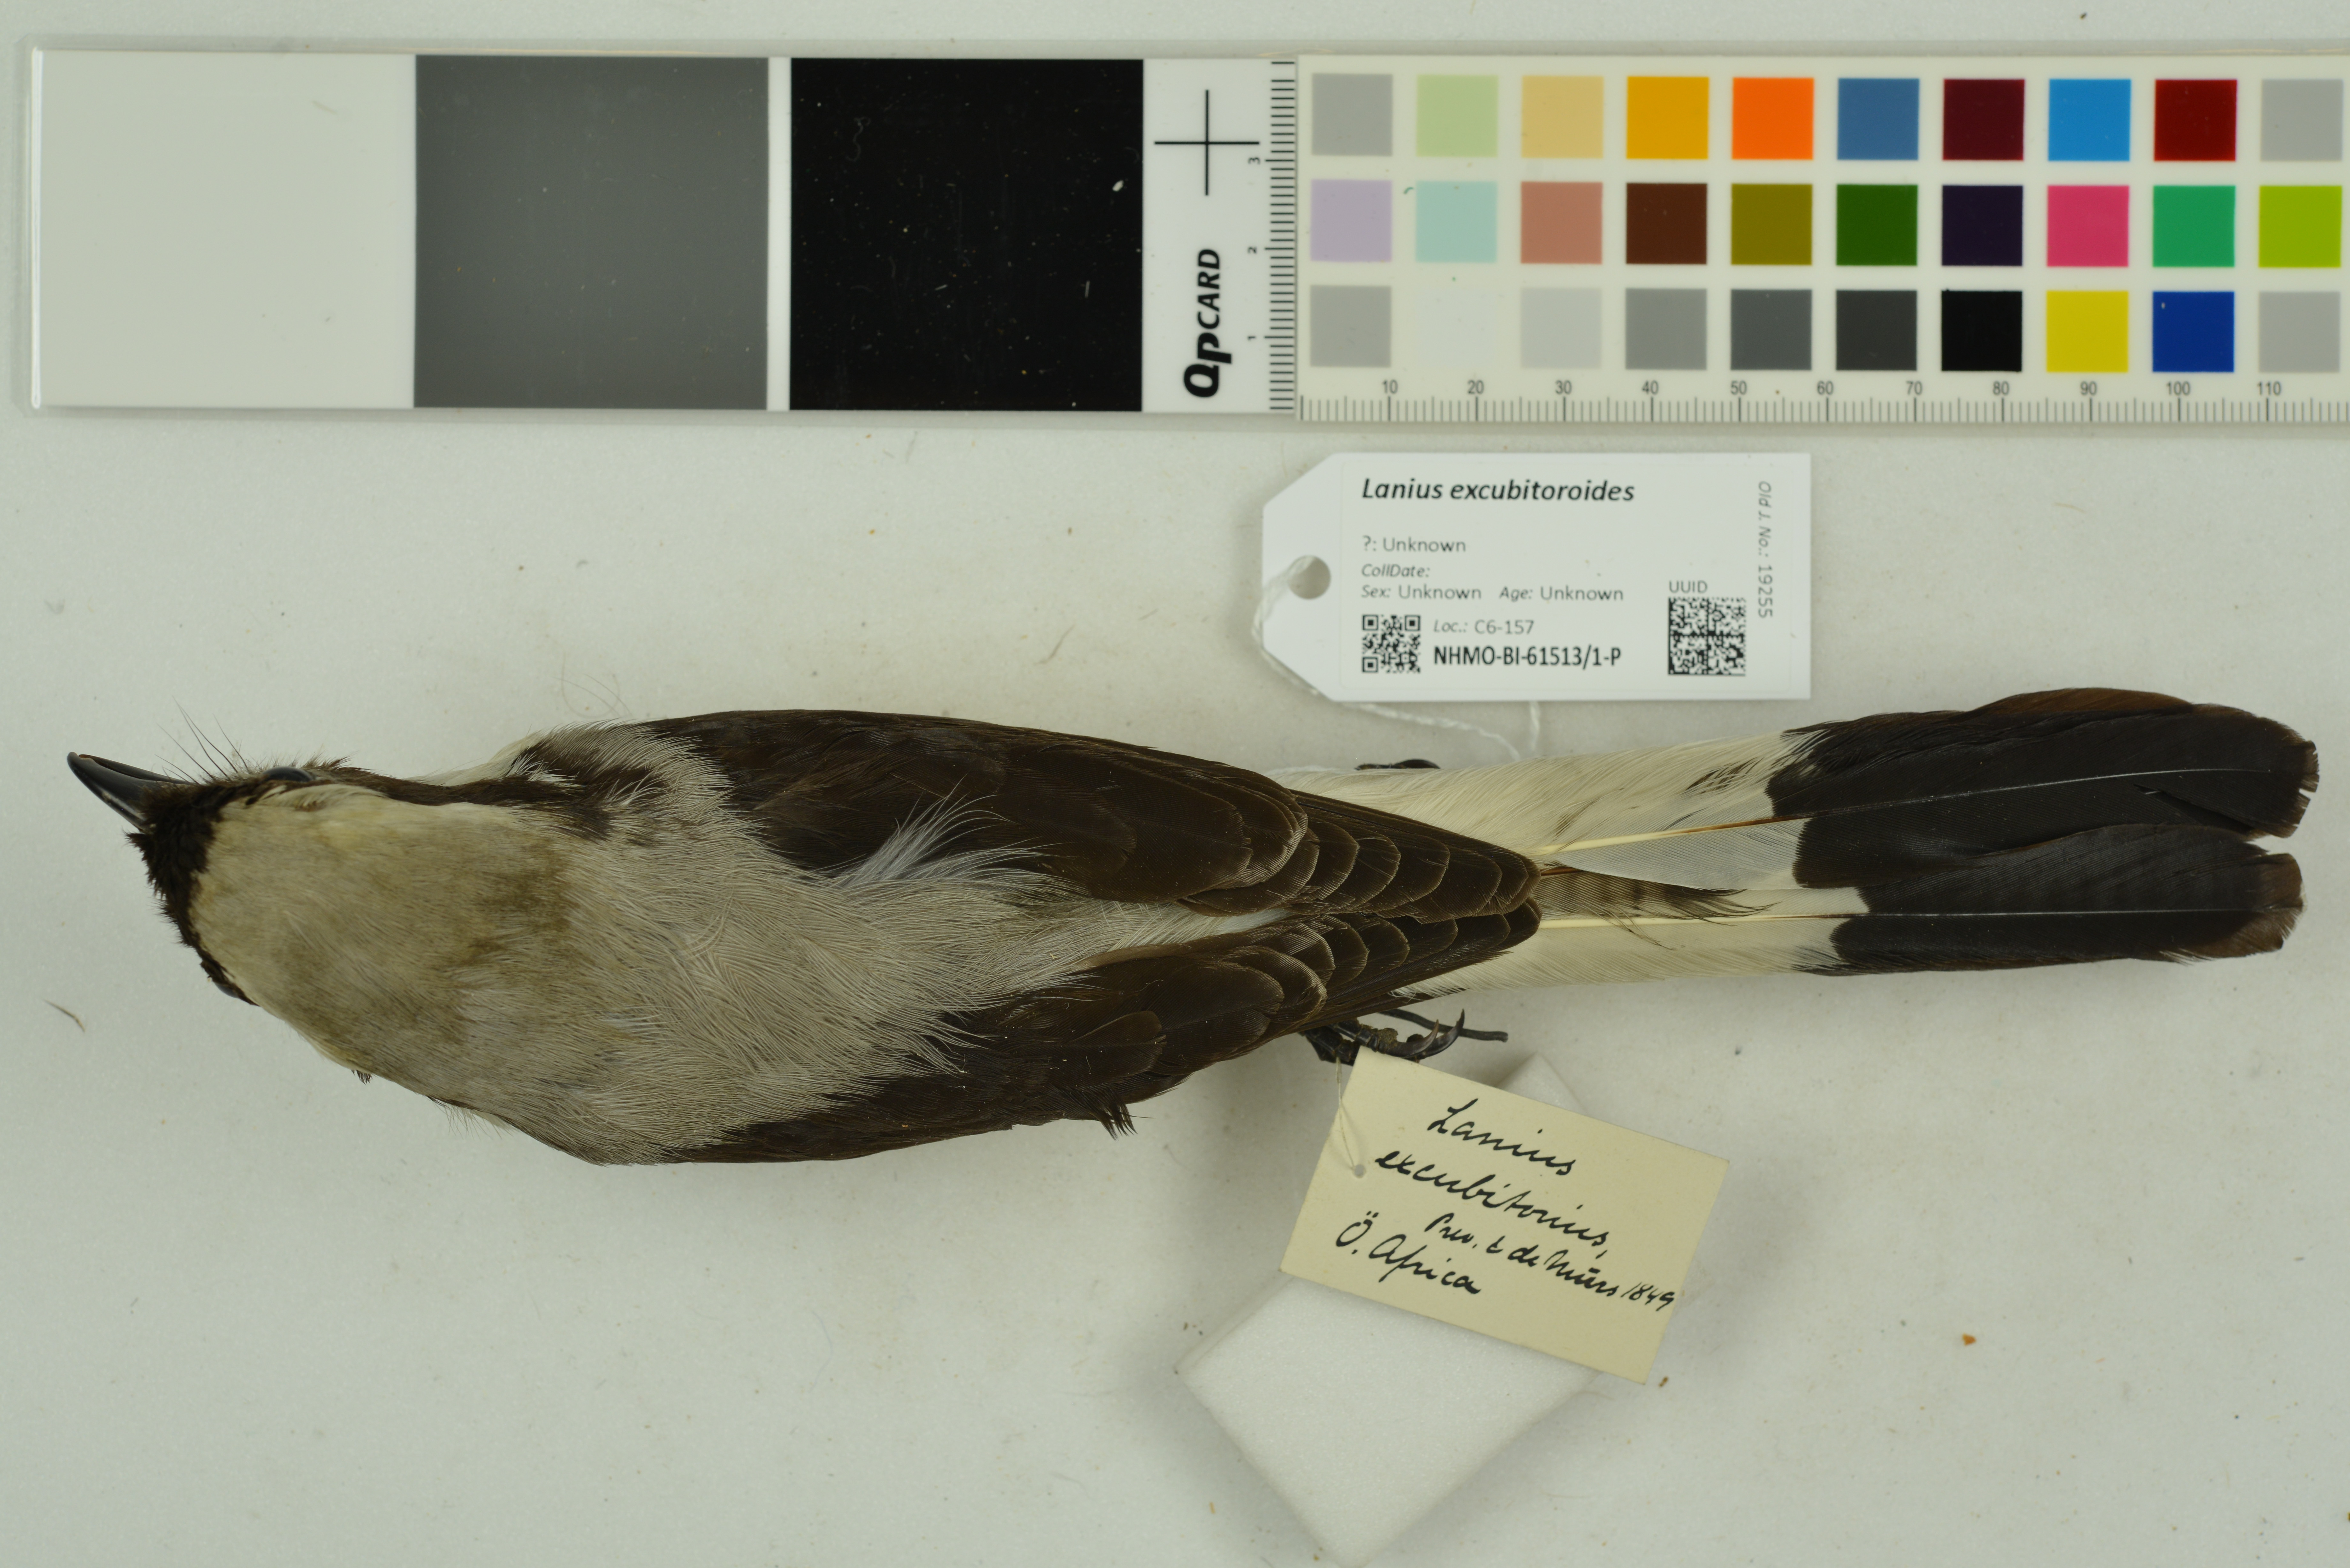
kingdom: Animalia
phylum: Chordata
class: Aves
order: Passeriformes
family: Laniidae
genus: Lanius
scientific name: Lanius excubitoroides
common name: Grey-backed fiscal
